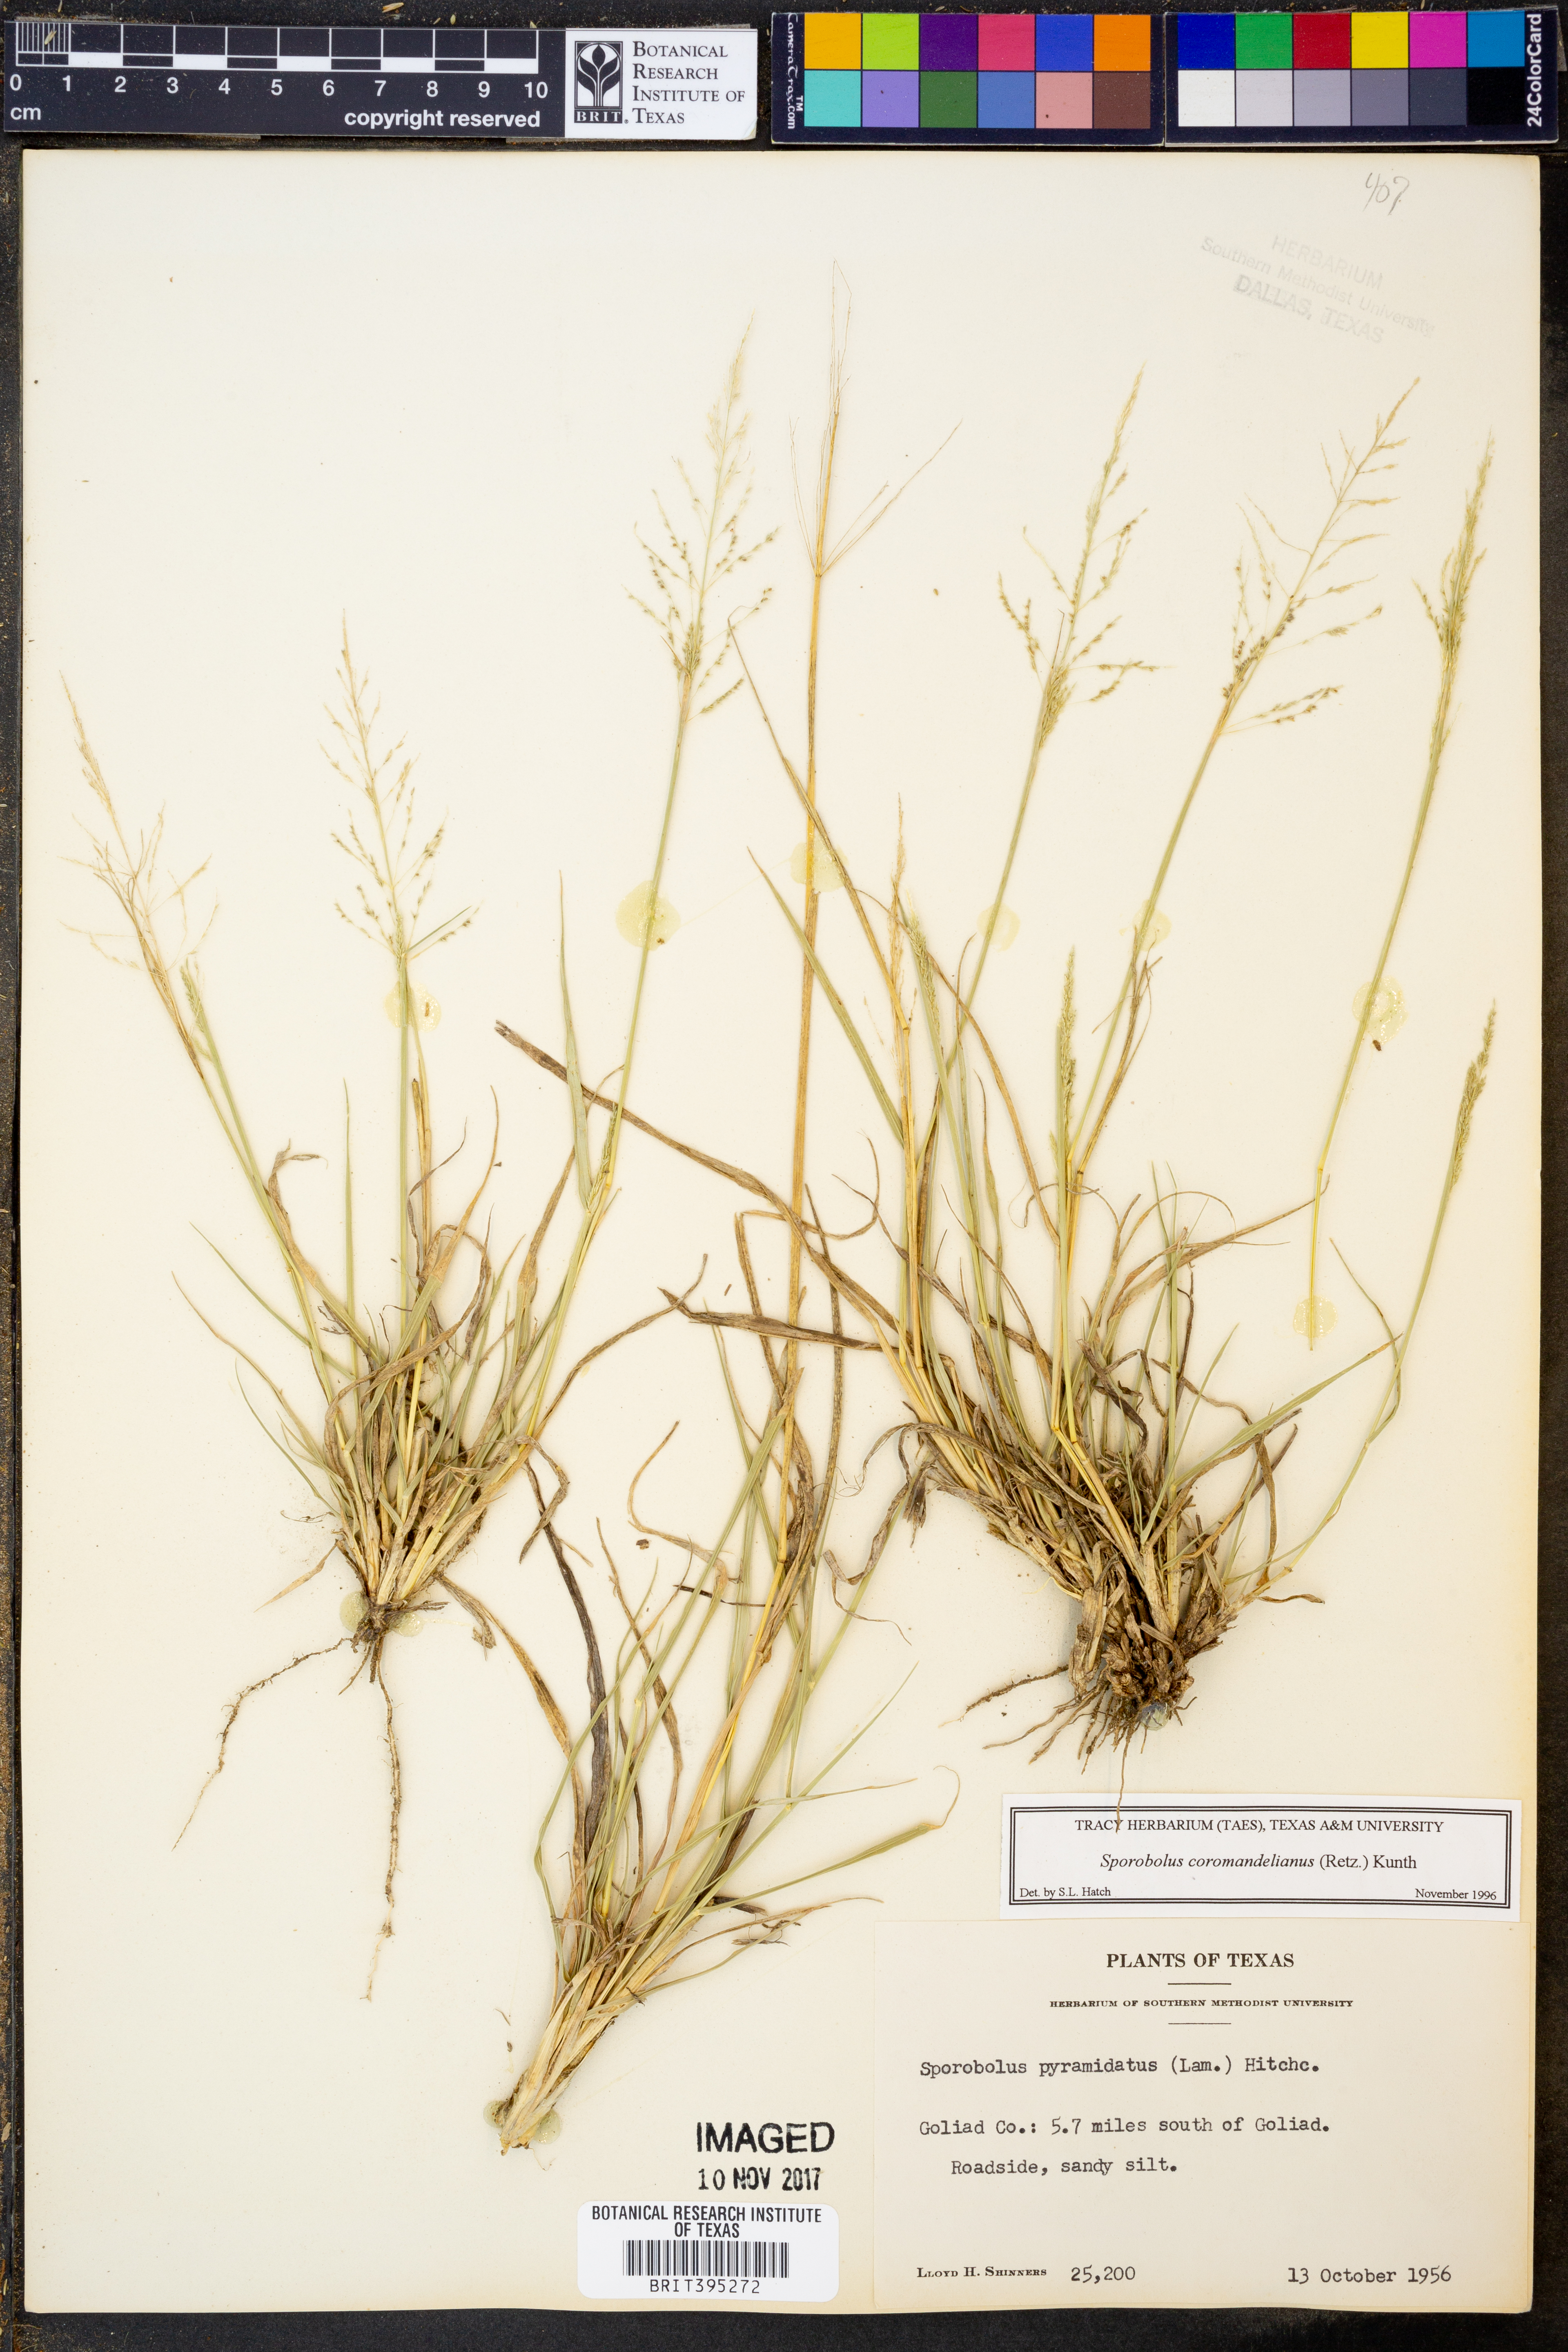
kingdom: Plantae
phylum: Tracheophyta
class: Liliopsida
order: Poales
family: Poaceae
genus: Sporobolus
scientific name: Sporobolus coromandelianus
